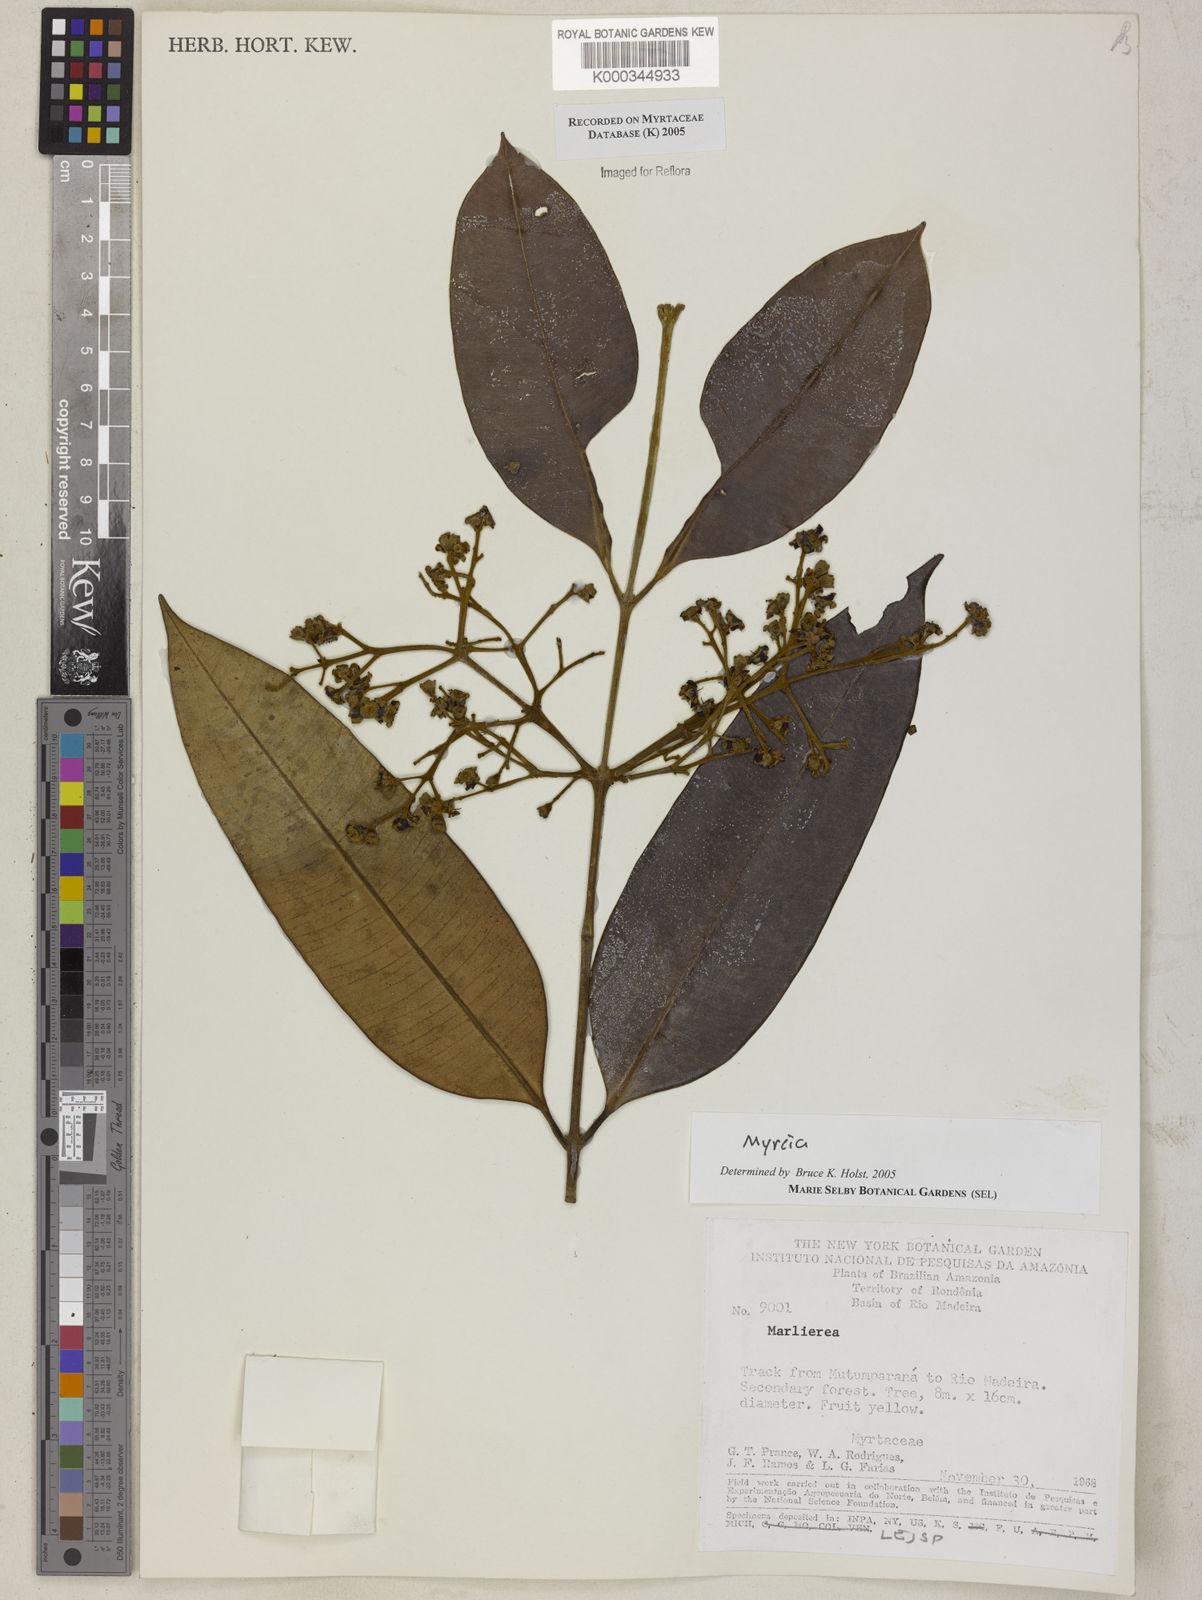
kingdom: Plantae
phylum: Tracheophyta
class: Magnoliopsida
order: Myrtales
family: Myrtaceae
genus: Myrcia
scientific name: Myrcia
